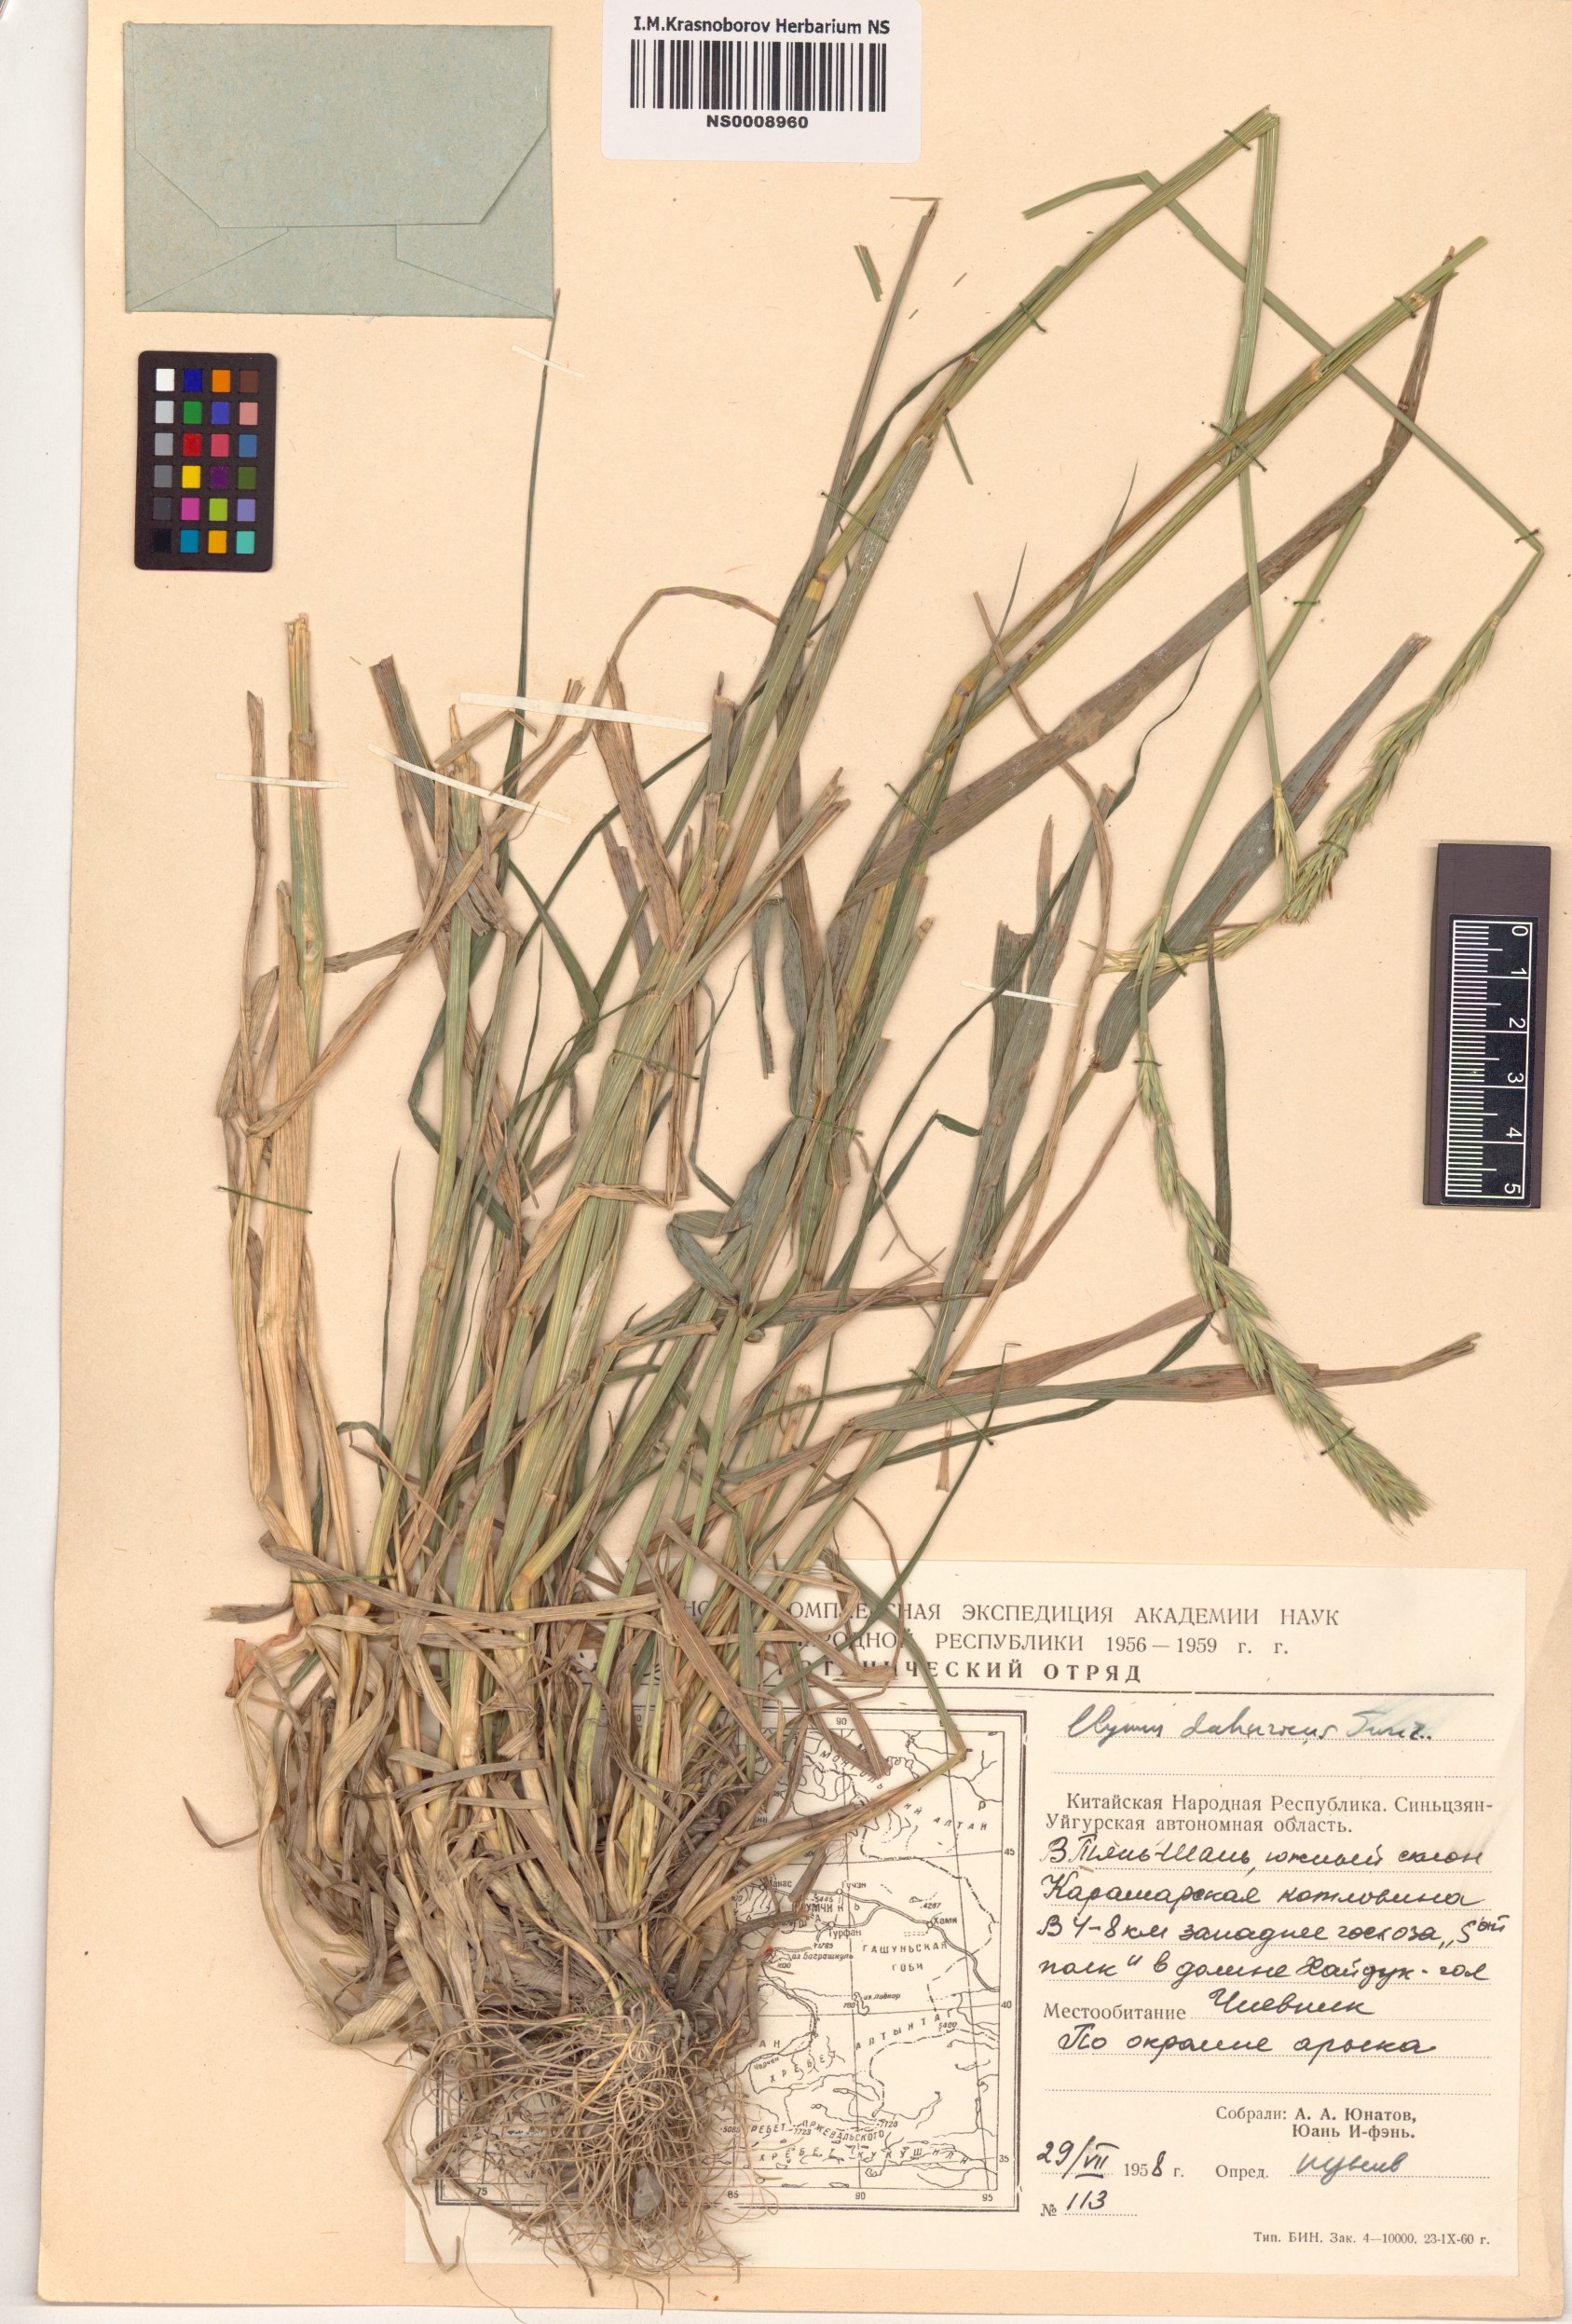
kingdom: Plantae
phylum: Tracheophyta
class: Liliopsida
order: Poales
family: Poaceae
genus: Elymus
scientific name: Elymus dahuricus
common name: Dahurian wild rye
